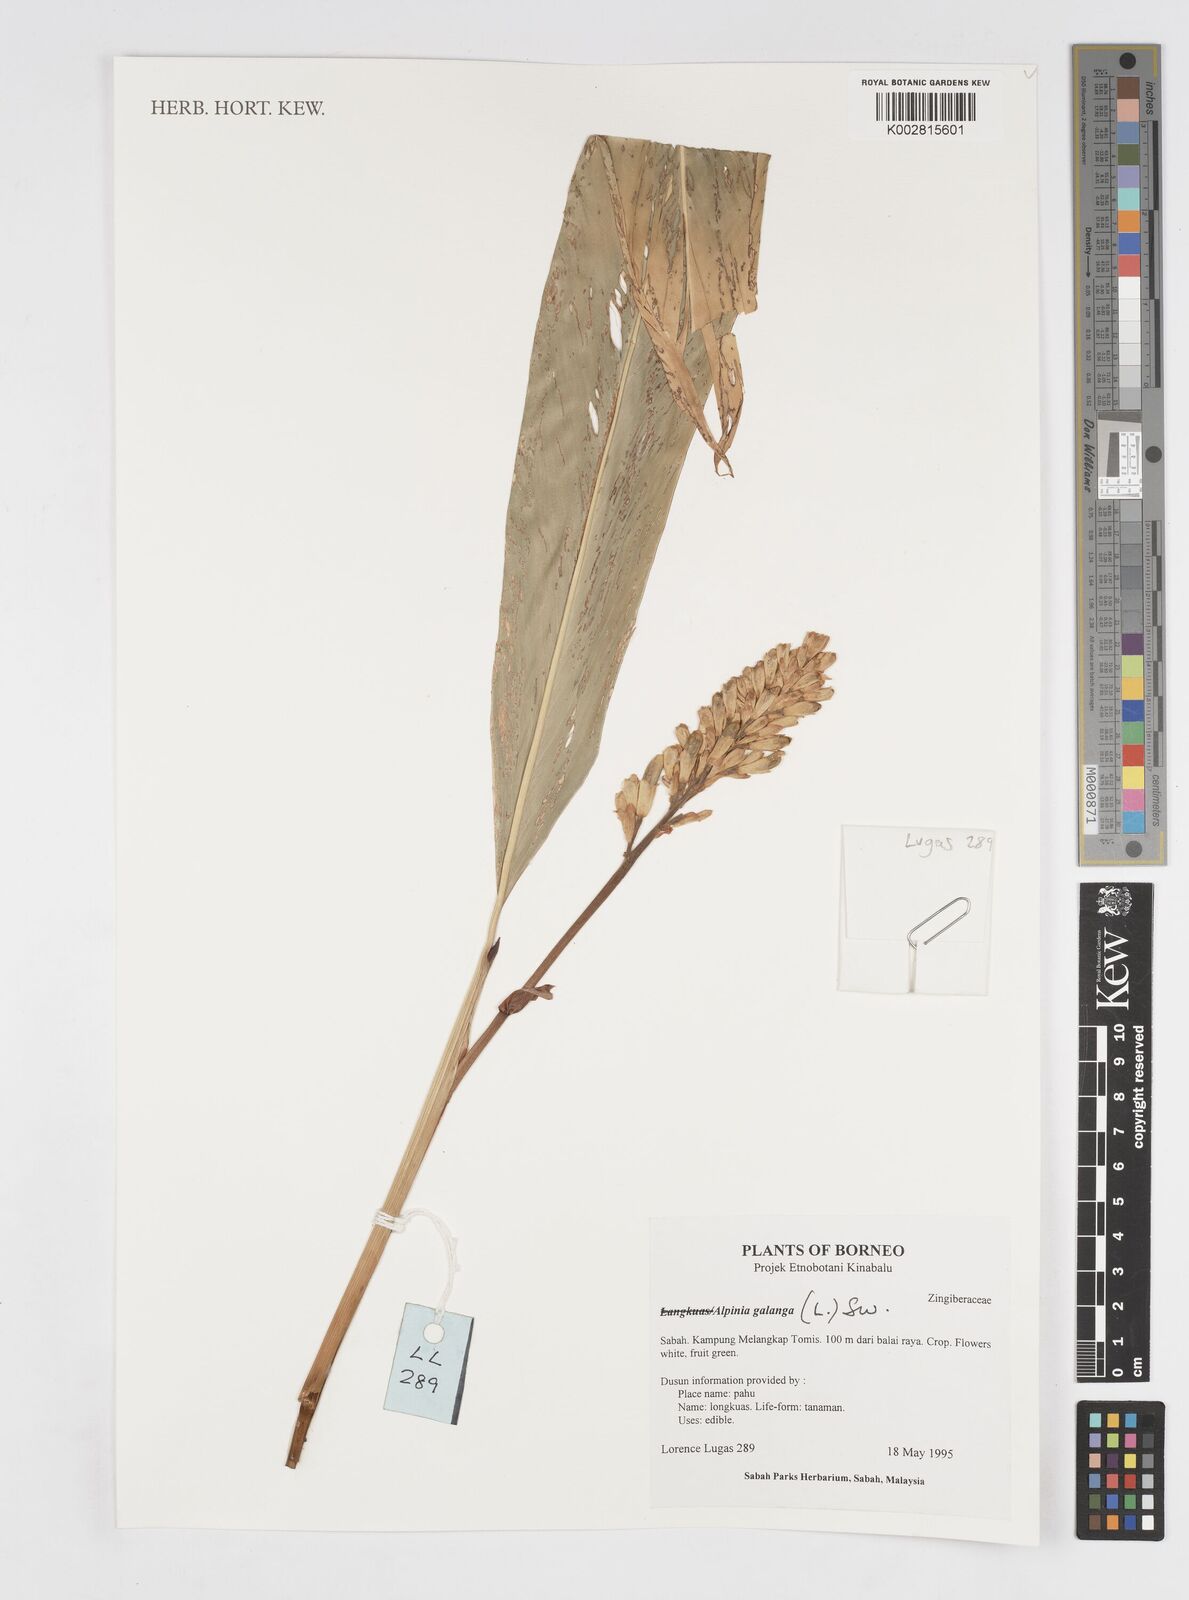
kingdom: Plantae
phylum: Tracheophyta
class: Liliopsida
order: Zingiberales
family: Zingiberaceae
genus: Alpinia
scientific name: Alpinia galanga
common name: Siamese-ginger
